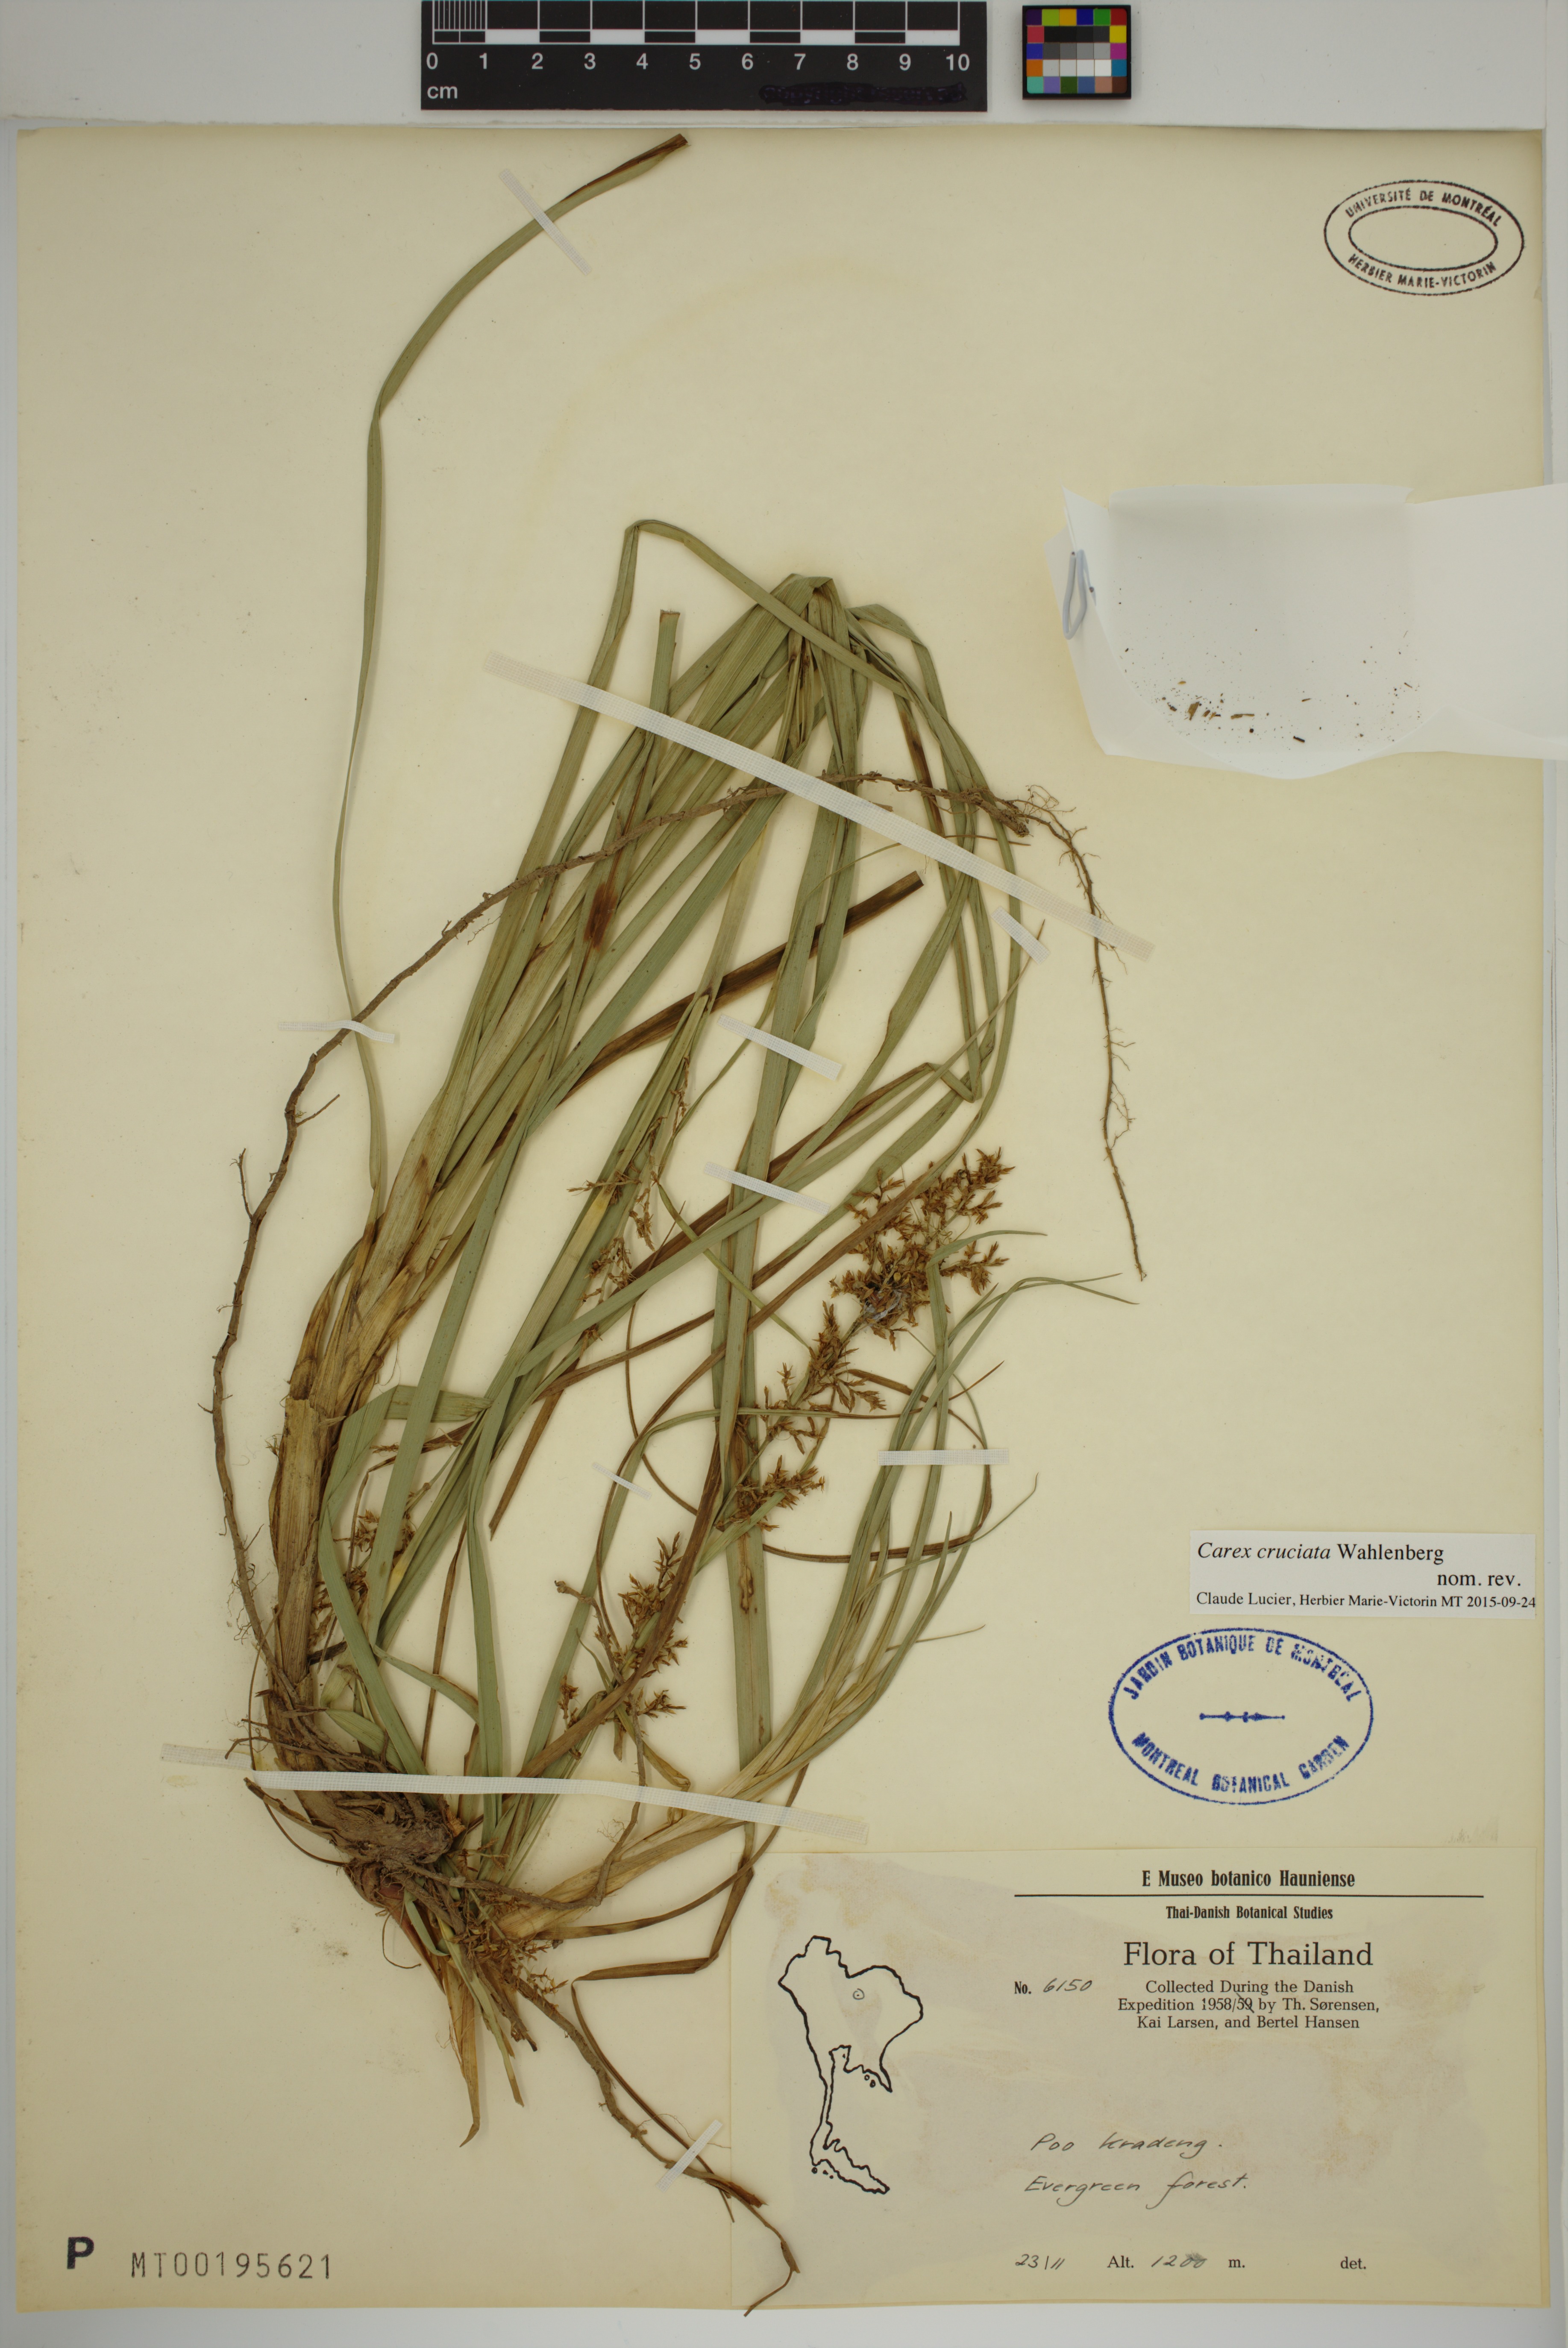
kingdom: Plantae
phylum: Tracheophyta
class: Liliopsida
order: Poales
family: Cyperaceae
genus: Carex
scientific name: Carex cruciata
